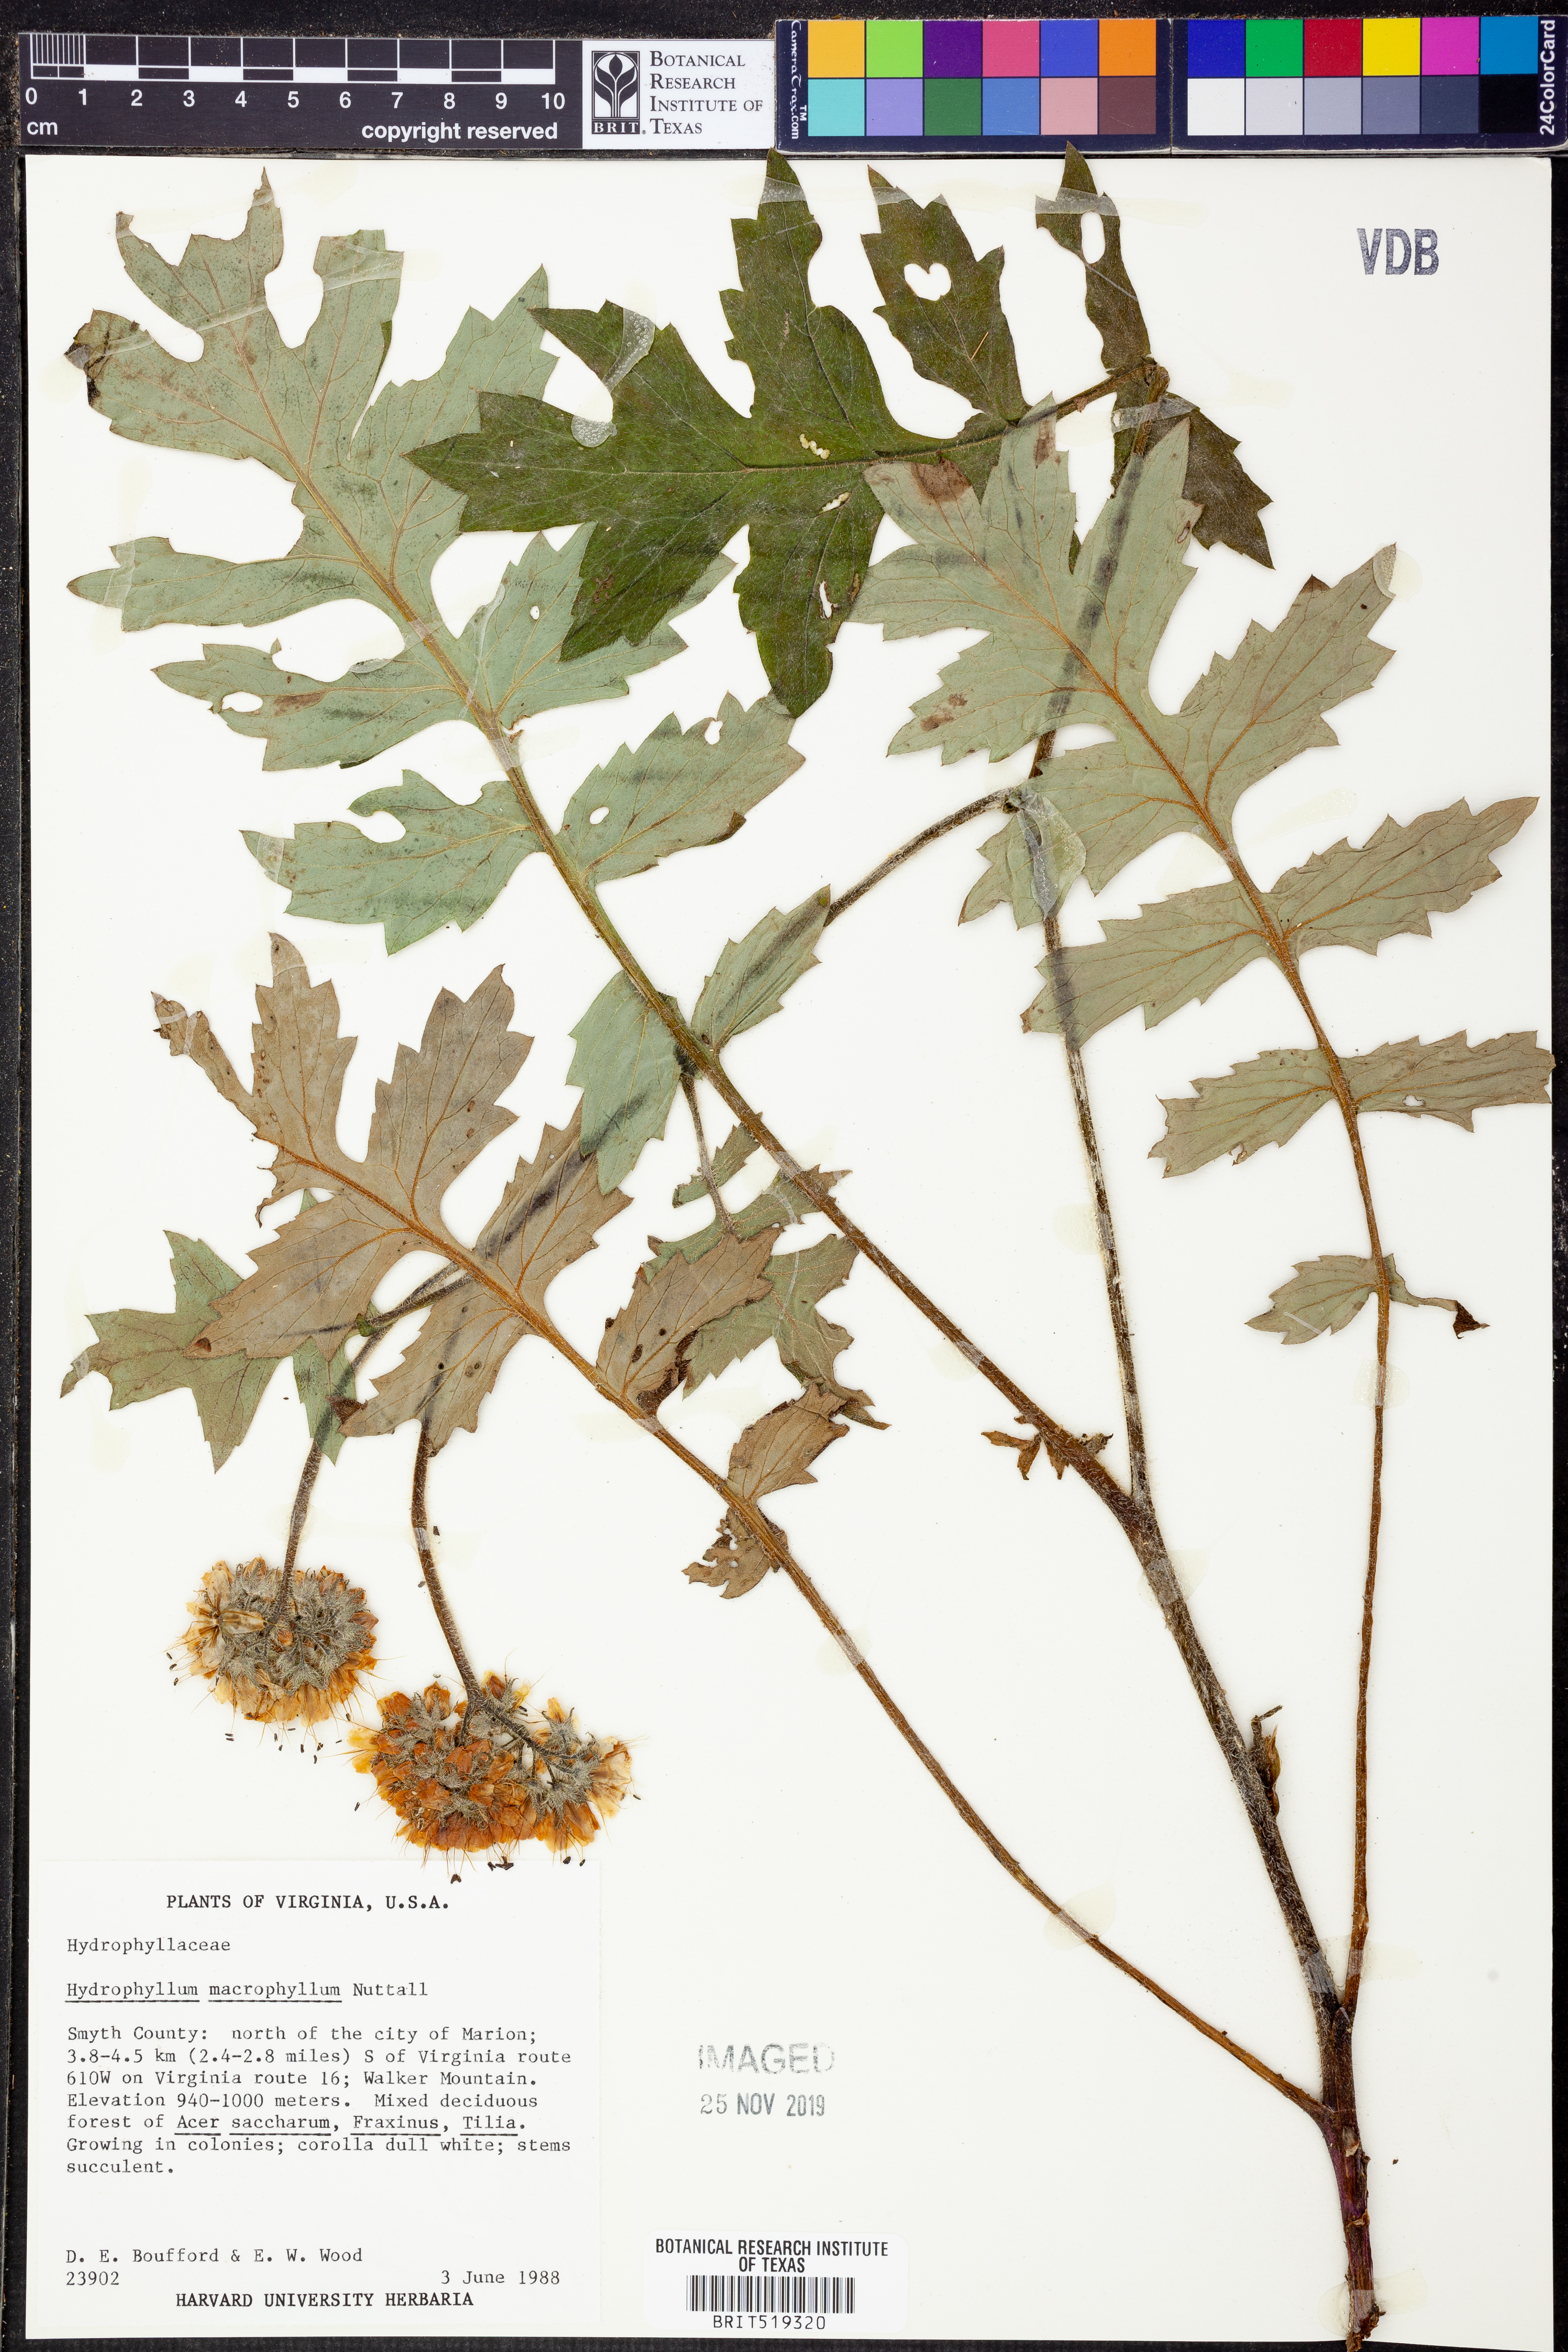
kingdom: Plantae
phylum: Tracheophyta
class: Magnoliopsida
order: Boraginales
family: Hydrophyllaceae
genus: Hydrophyllum
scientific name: Hydrophyllum macrophyllum
